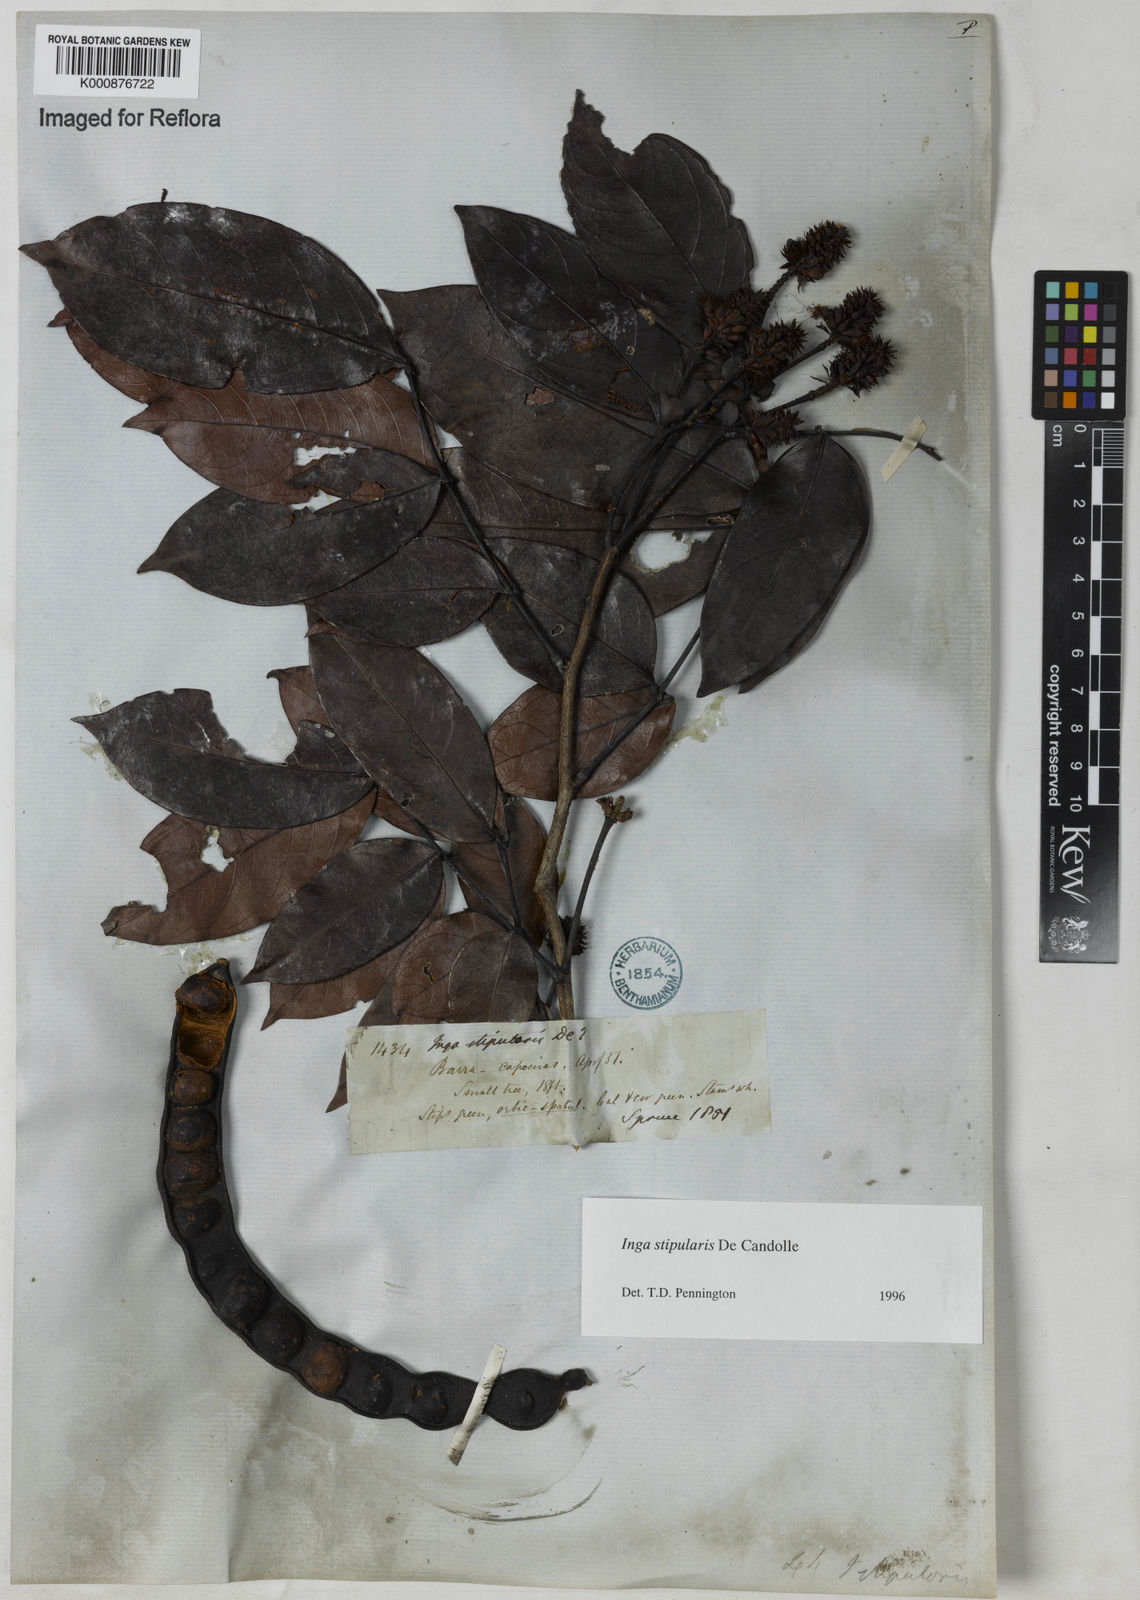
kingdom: Plantae
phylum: Tracheophyta
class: Magnoliopsida
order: Fabales
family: Fabaceae
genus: Inga
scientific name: Inga stipularis
